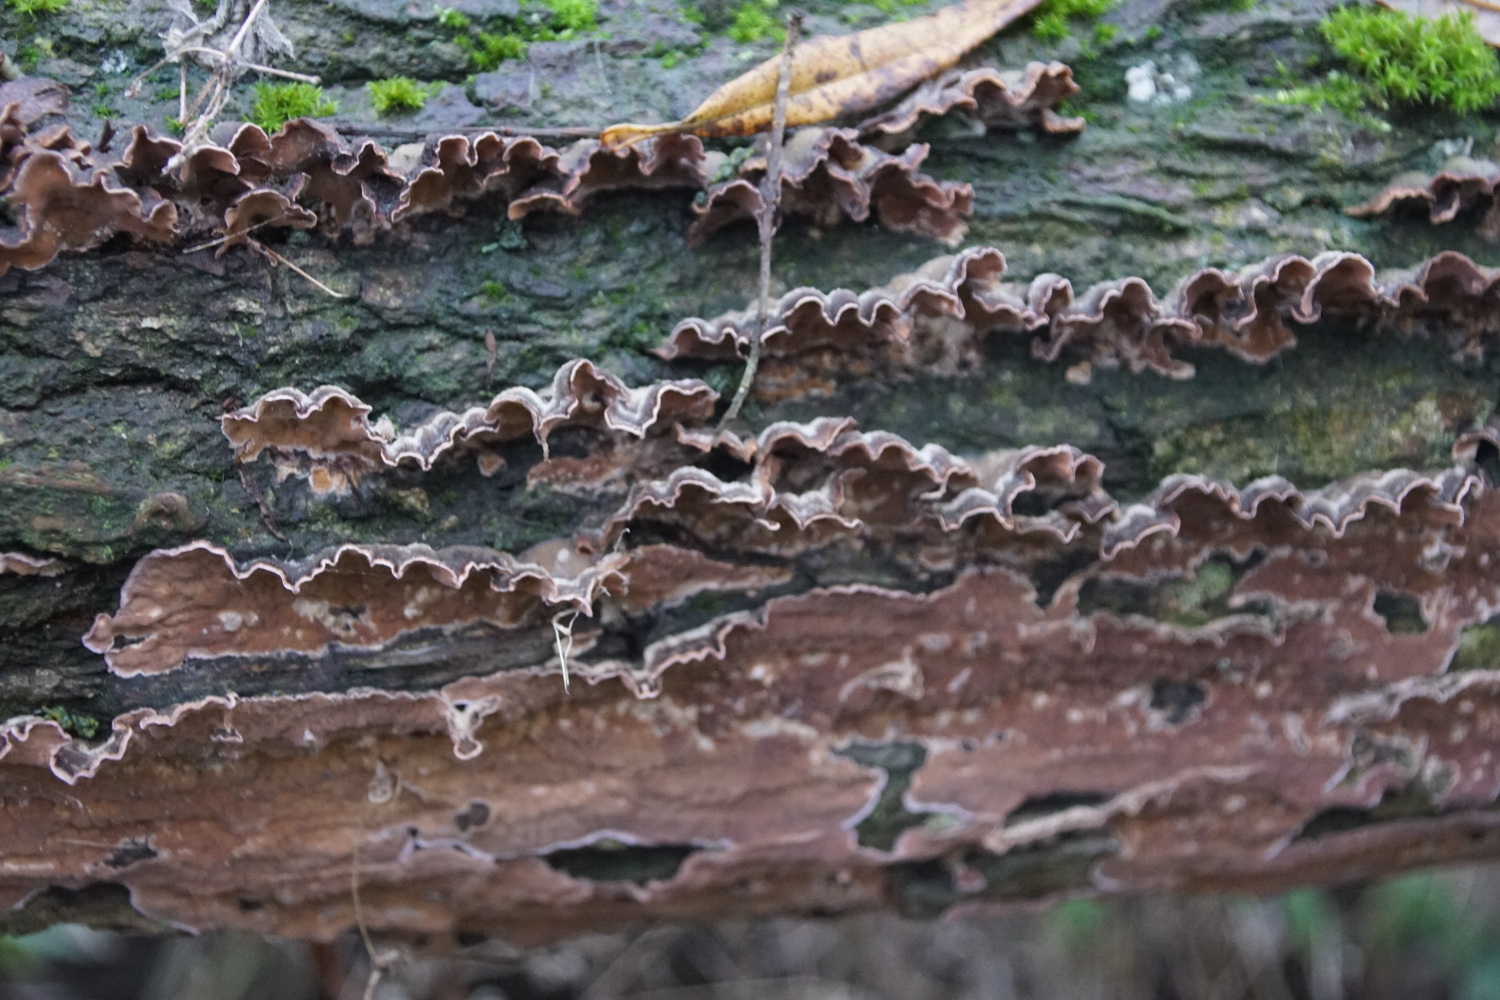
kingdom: Fungi
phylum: Basidiomycota
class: Agaricomycetes
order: Agaricales
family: Cyphellaceae
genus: Chondrostereum
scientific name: Chondrostereum purpureum
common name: purpurlædersvamp
